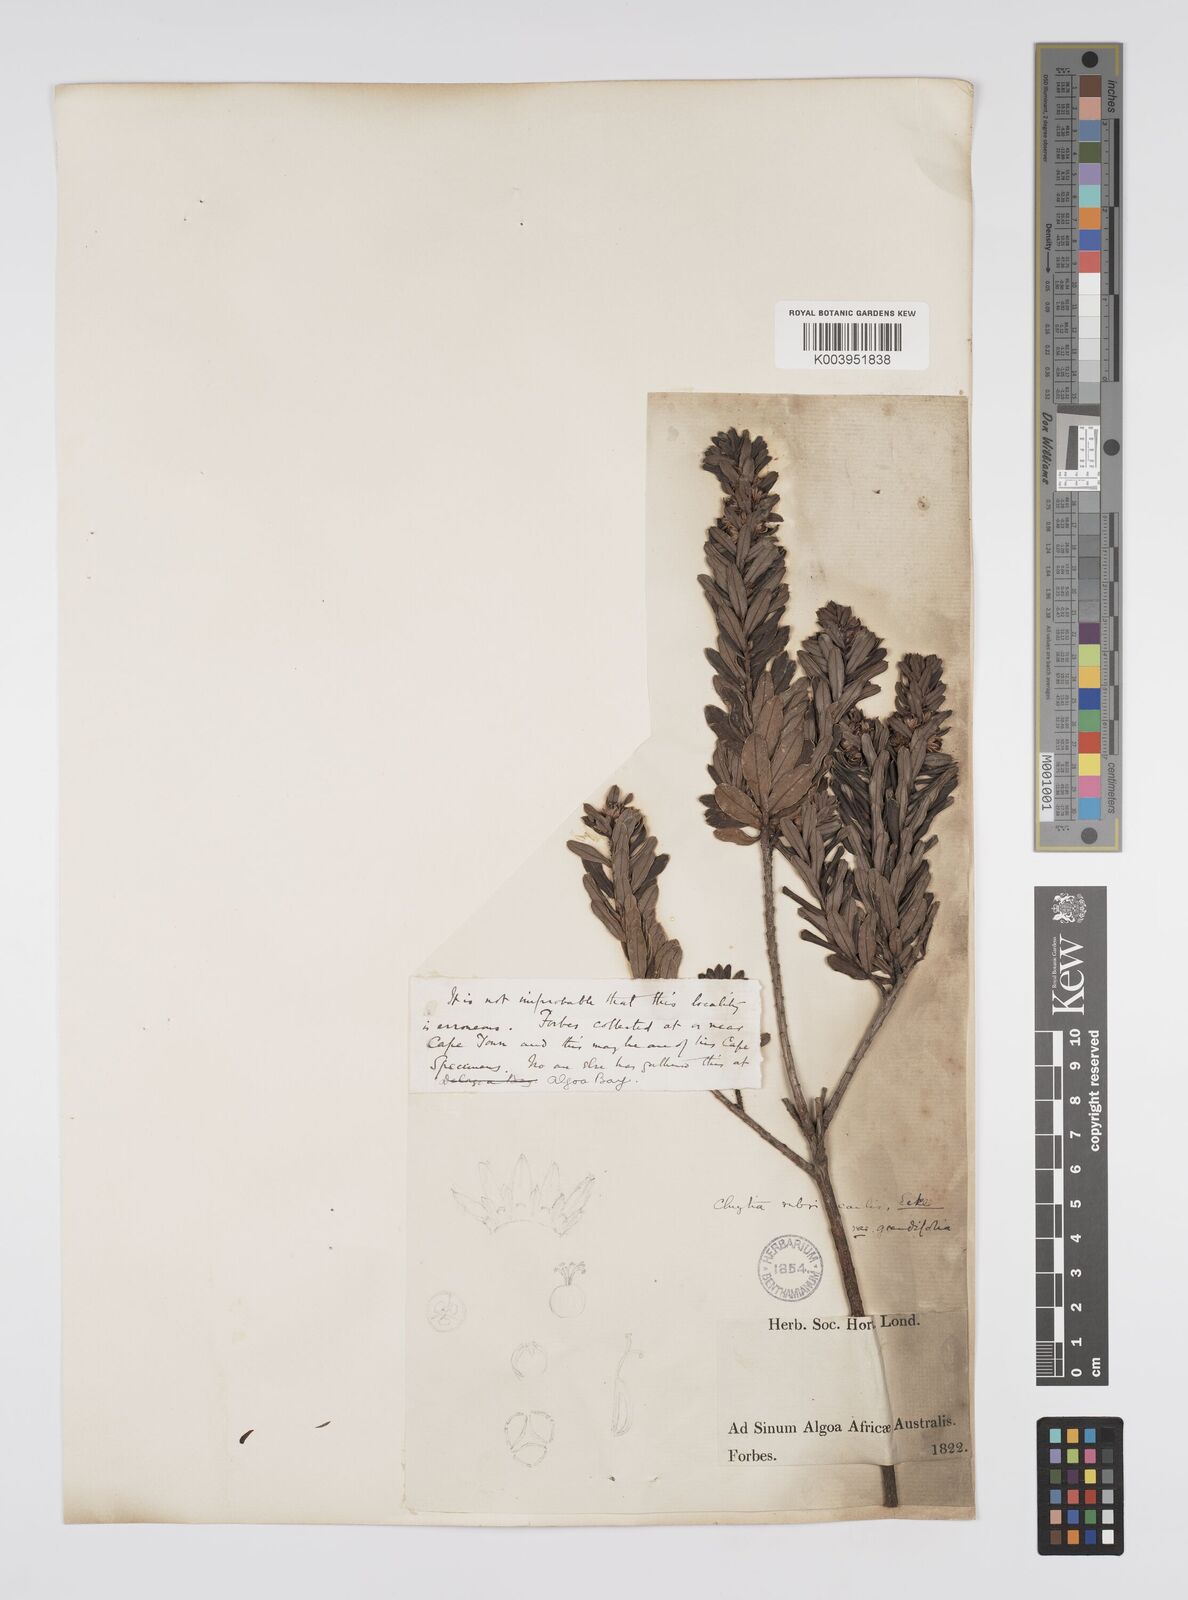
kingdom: Plantae
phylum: Tracheophyta
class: Magnoliopsida
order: Malpighiales
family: Peraceae
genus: Clutia
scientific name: Clutia rubricaulis
